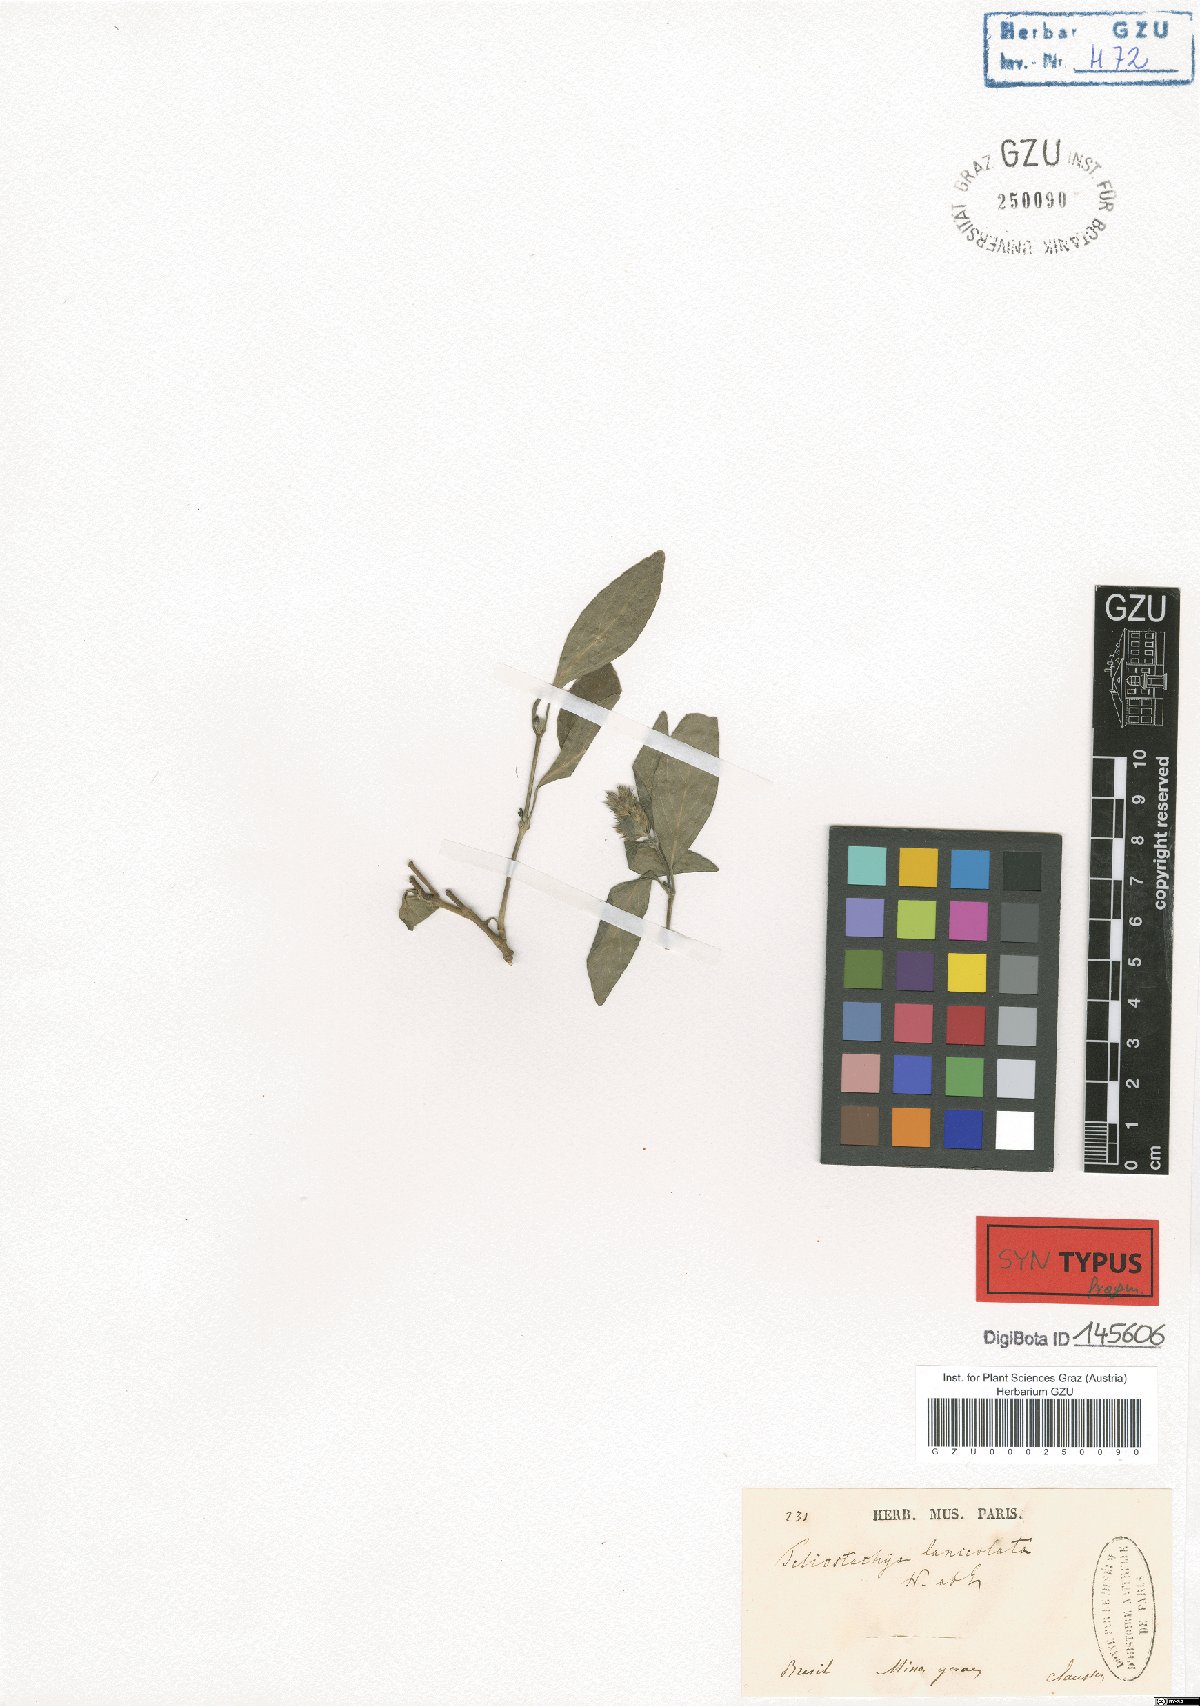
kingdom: Plantae
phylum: Tracheophyta
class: Magnoliopsida
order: Lamiales
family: Acanthaceae
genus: Lepidagathis
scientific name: Lepidagathis alopecuroidea
